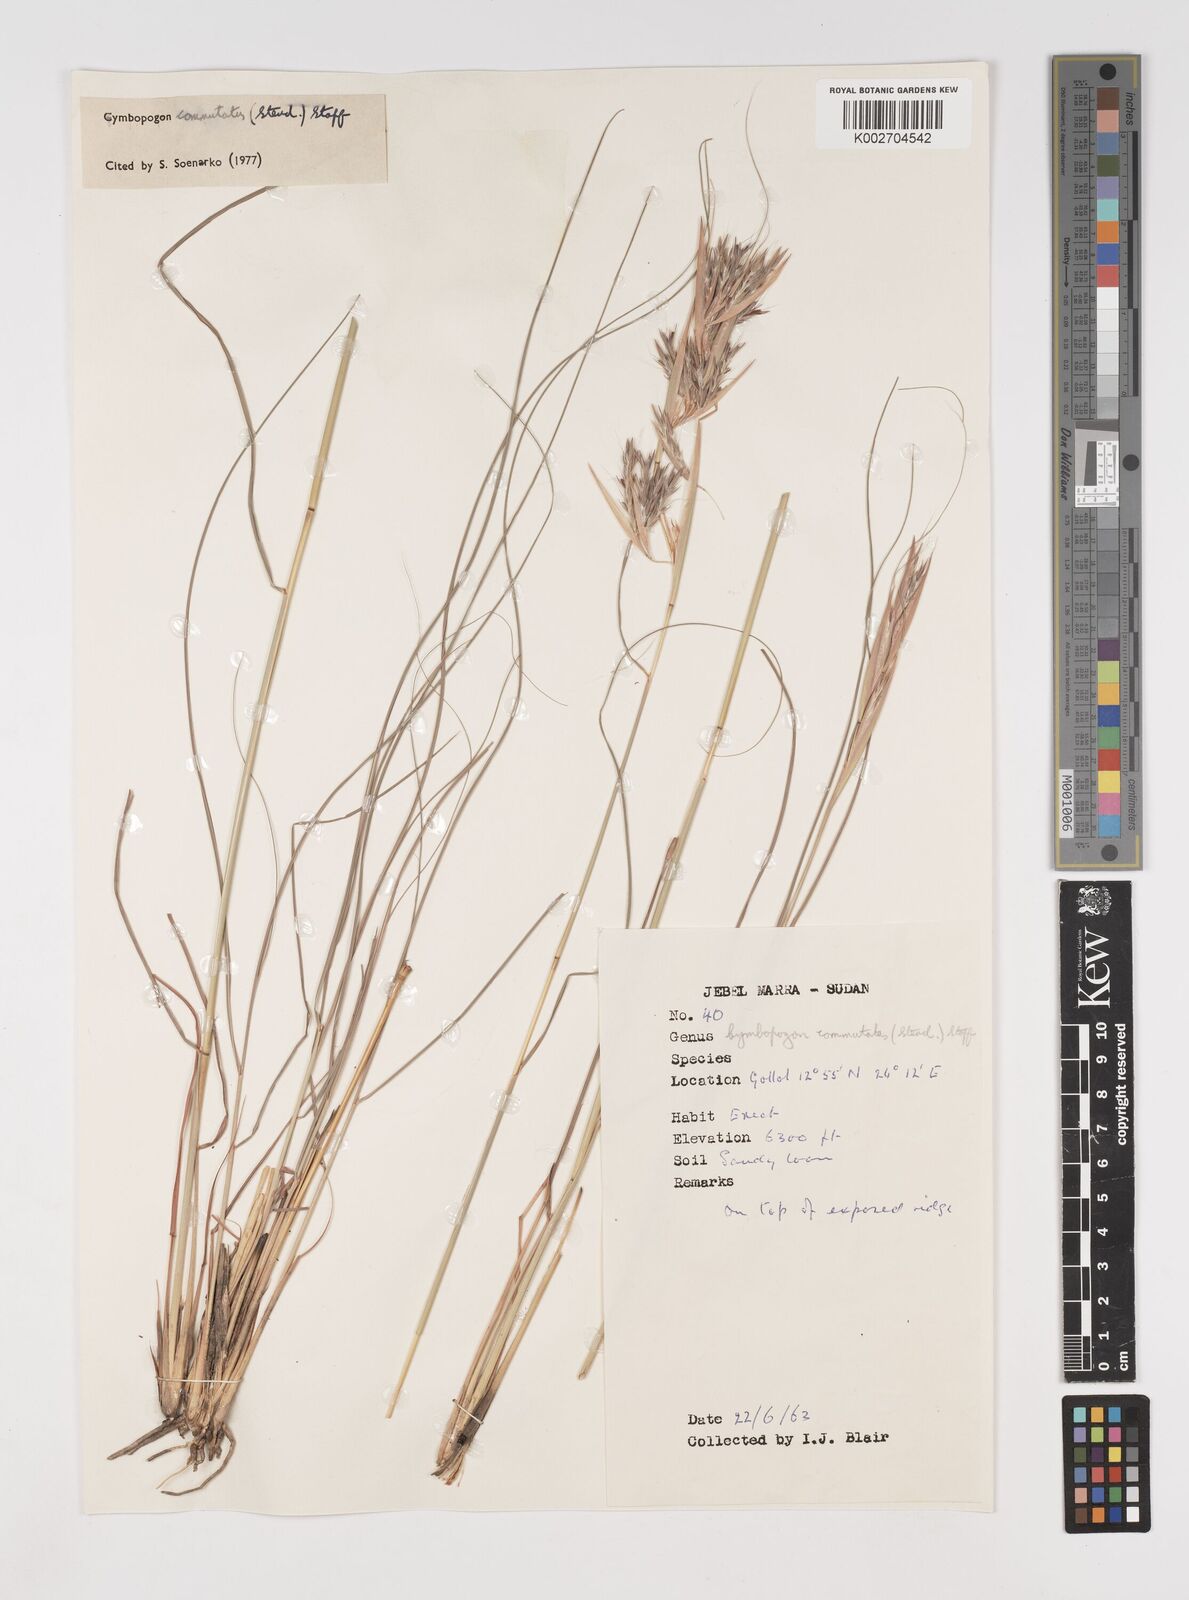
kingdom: Plantae
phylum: Tracheophyta
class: Liliopsida
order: Poales
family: Poaceae
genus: Cymbopogon
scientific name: Cymbopogon commutatus
